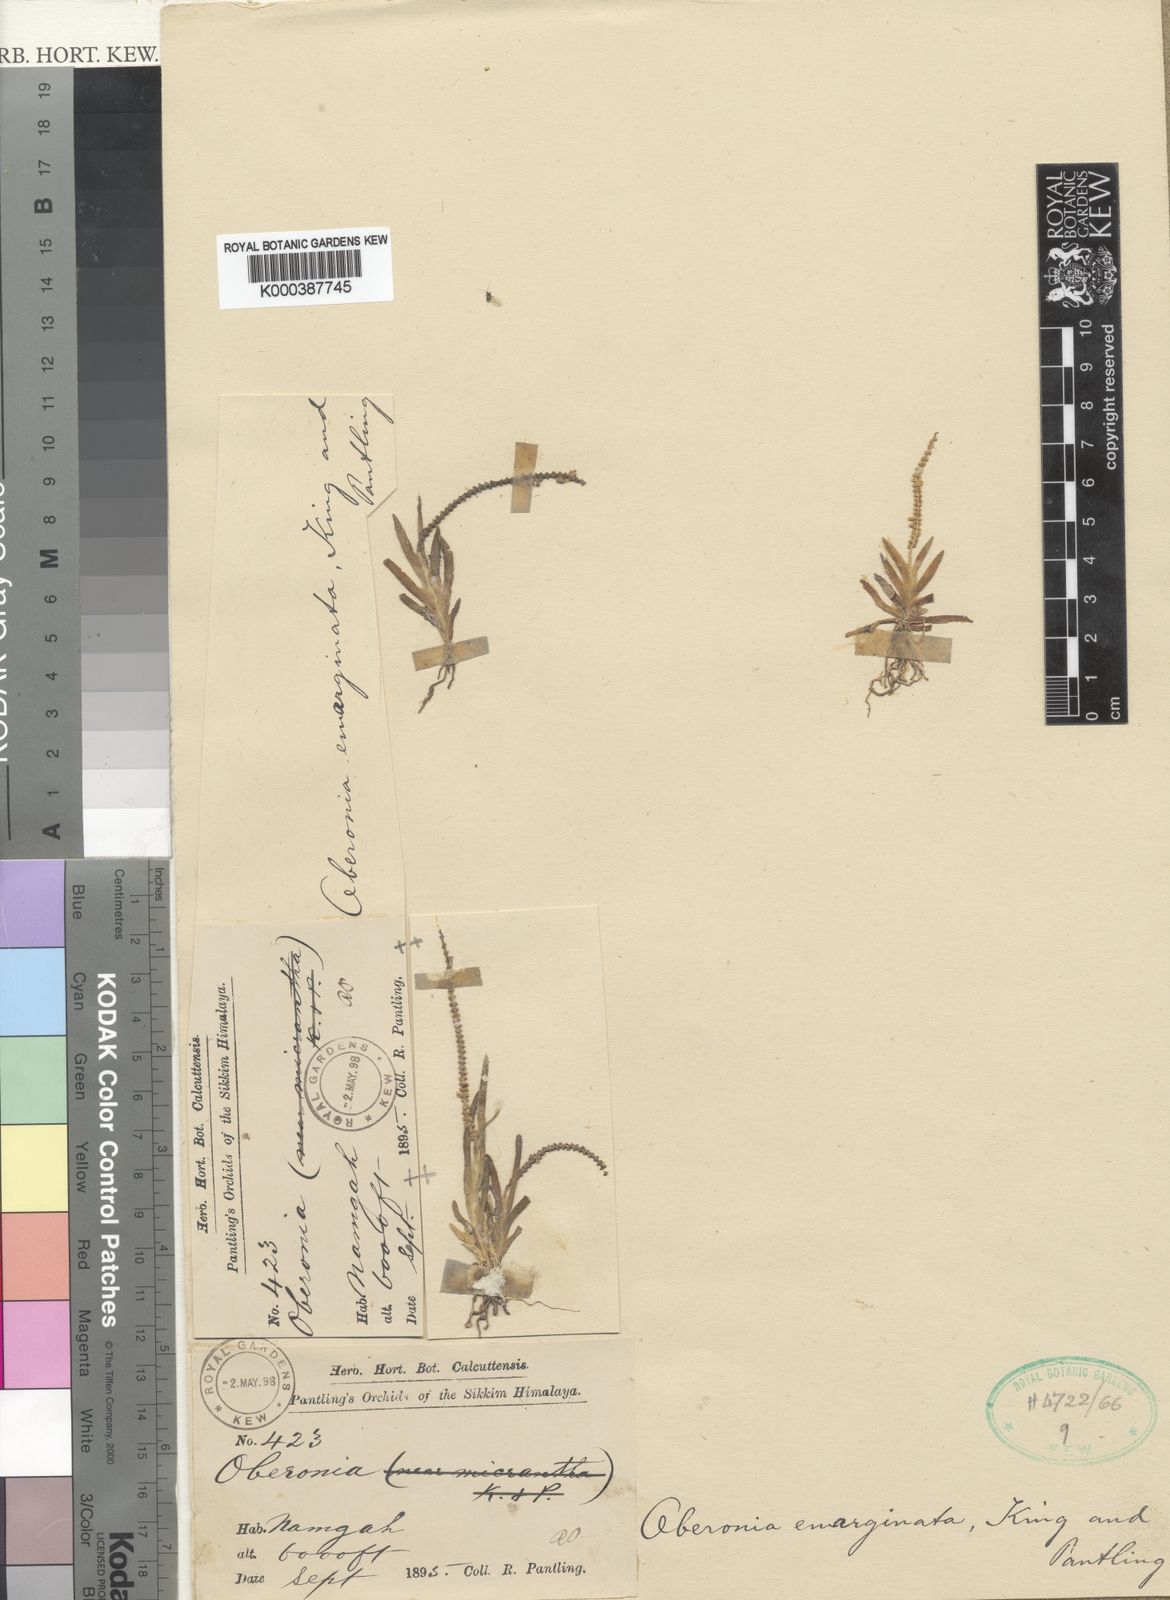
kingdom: Plantae
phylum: Tracheophyta
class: Liliopsida
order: Asparagales
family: Orchidaceae
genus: Oberonia
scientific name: Oberonia emarginata
